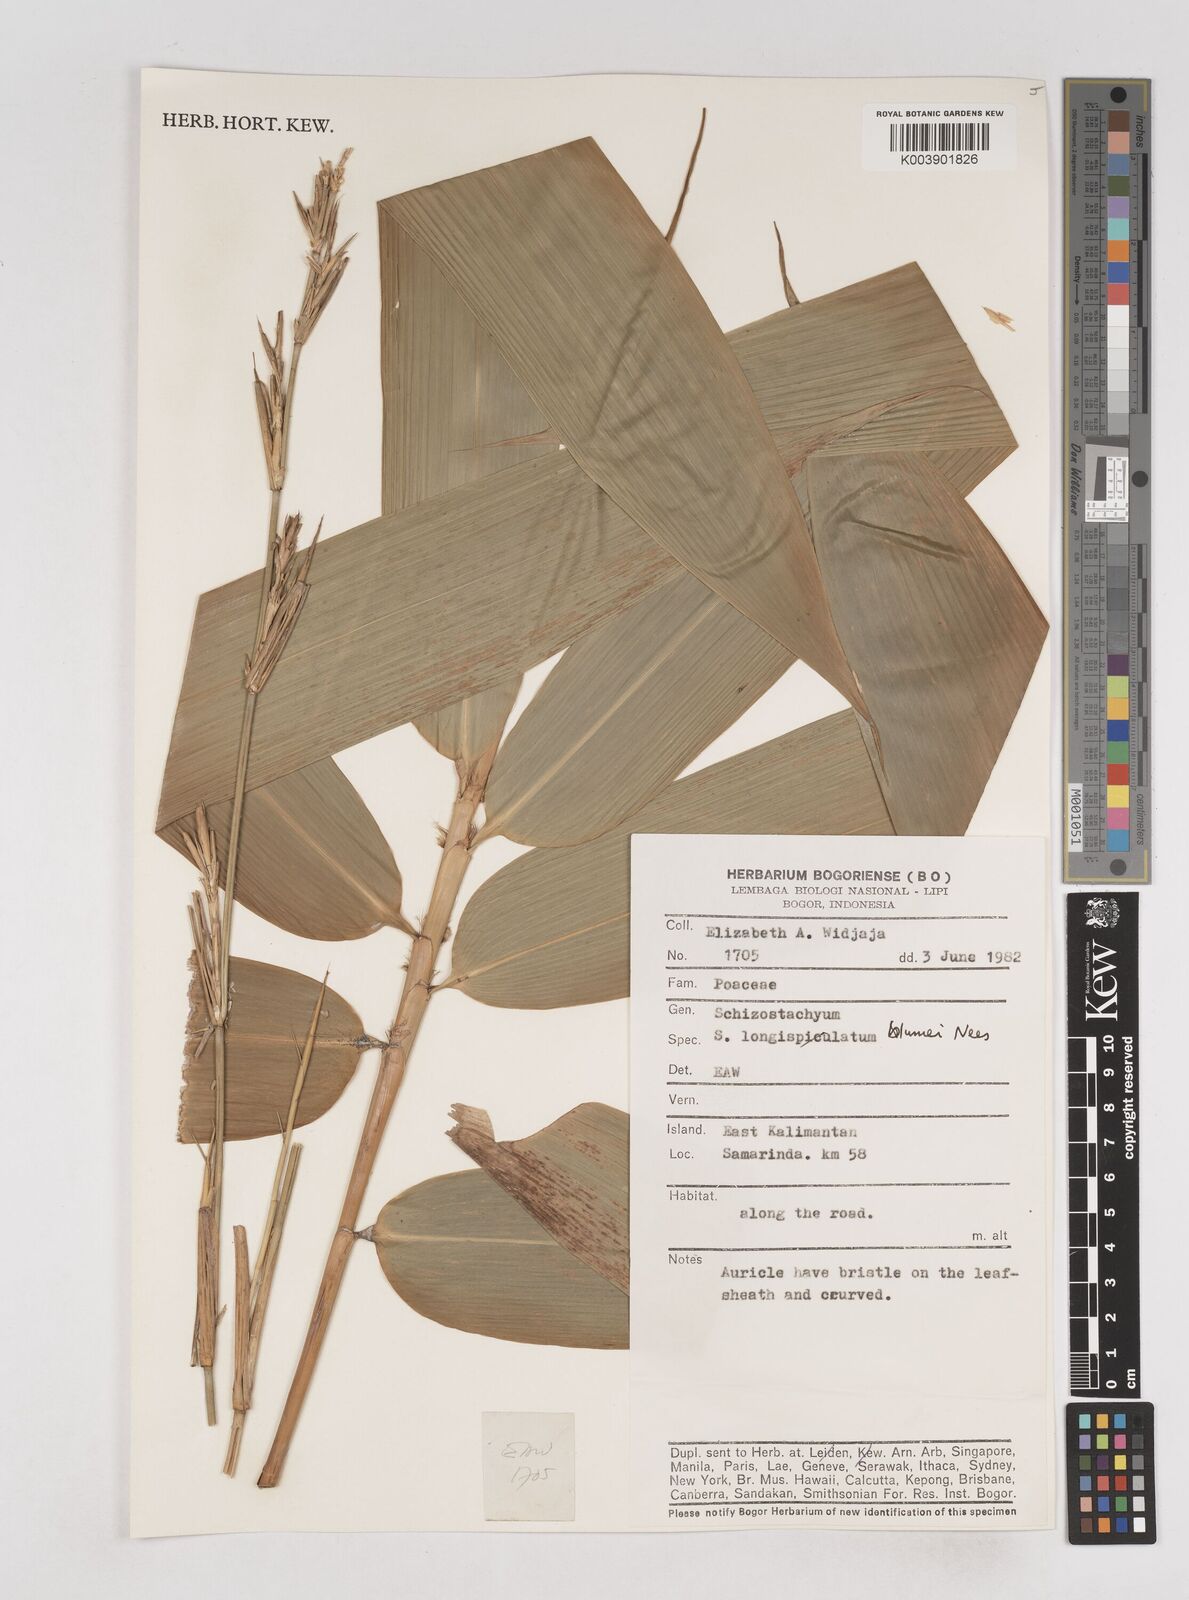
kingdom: Plantae
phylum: Tracheophyta
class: Liliopsida
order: Poales
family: Poaceae
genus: Schizostachyum
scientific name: Schizostachyum blumei
